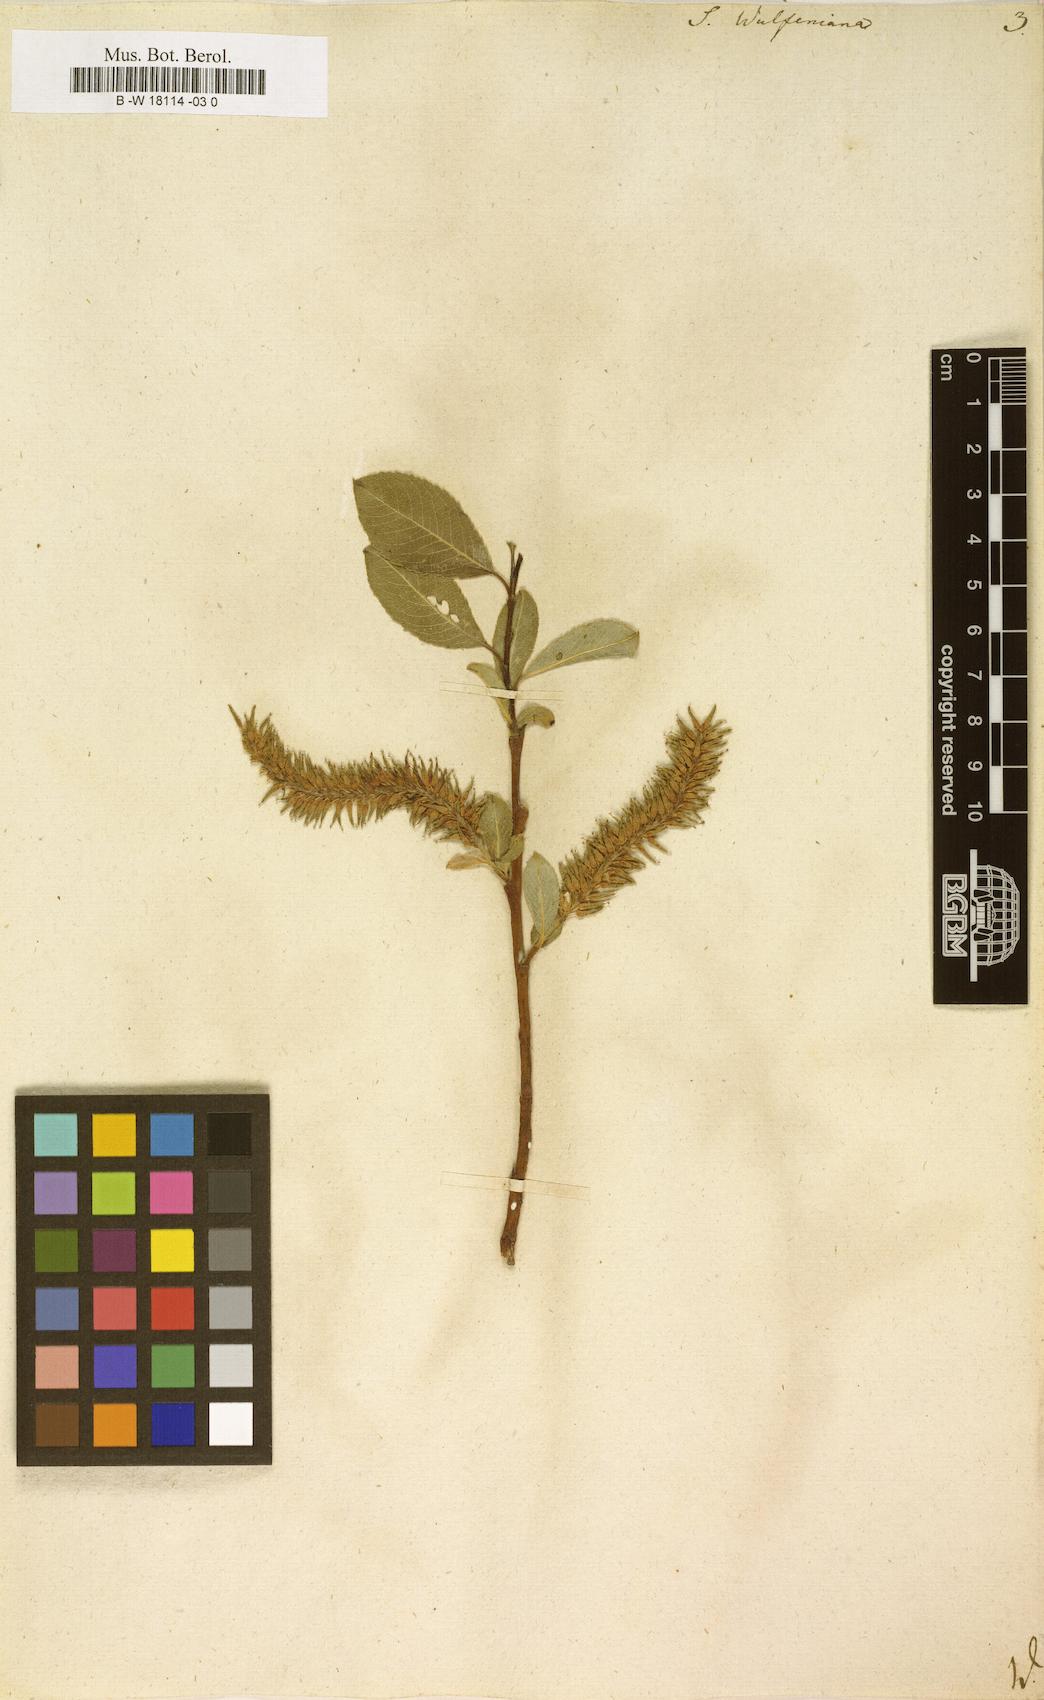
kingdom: Plantae
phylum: Tracheophyta
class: Magnoliopsida
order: Malpighiales
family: Salicaceae
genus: Salix
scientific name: Salix
